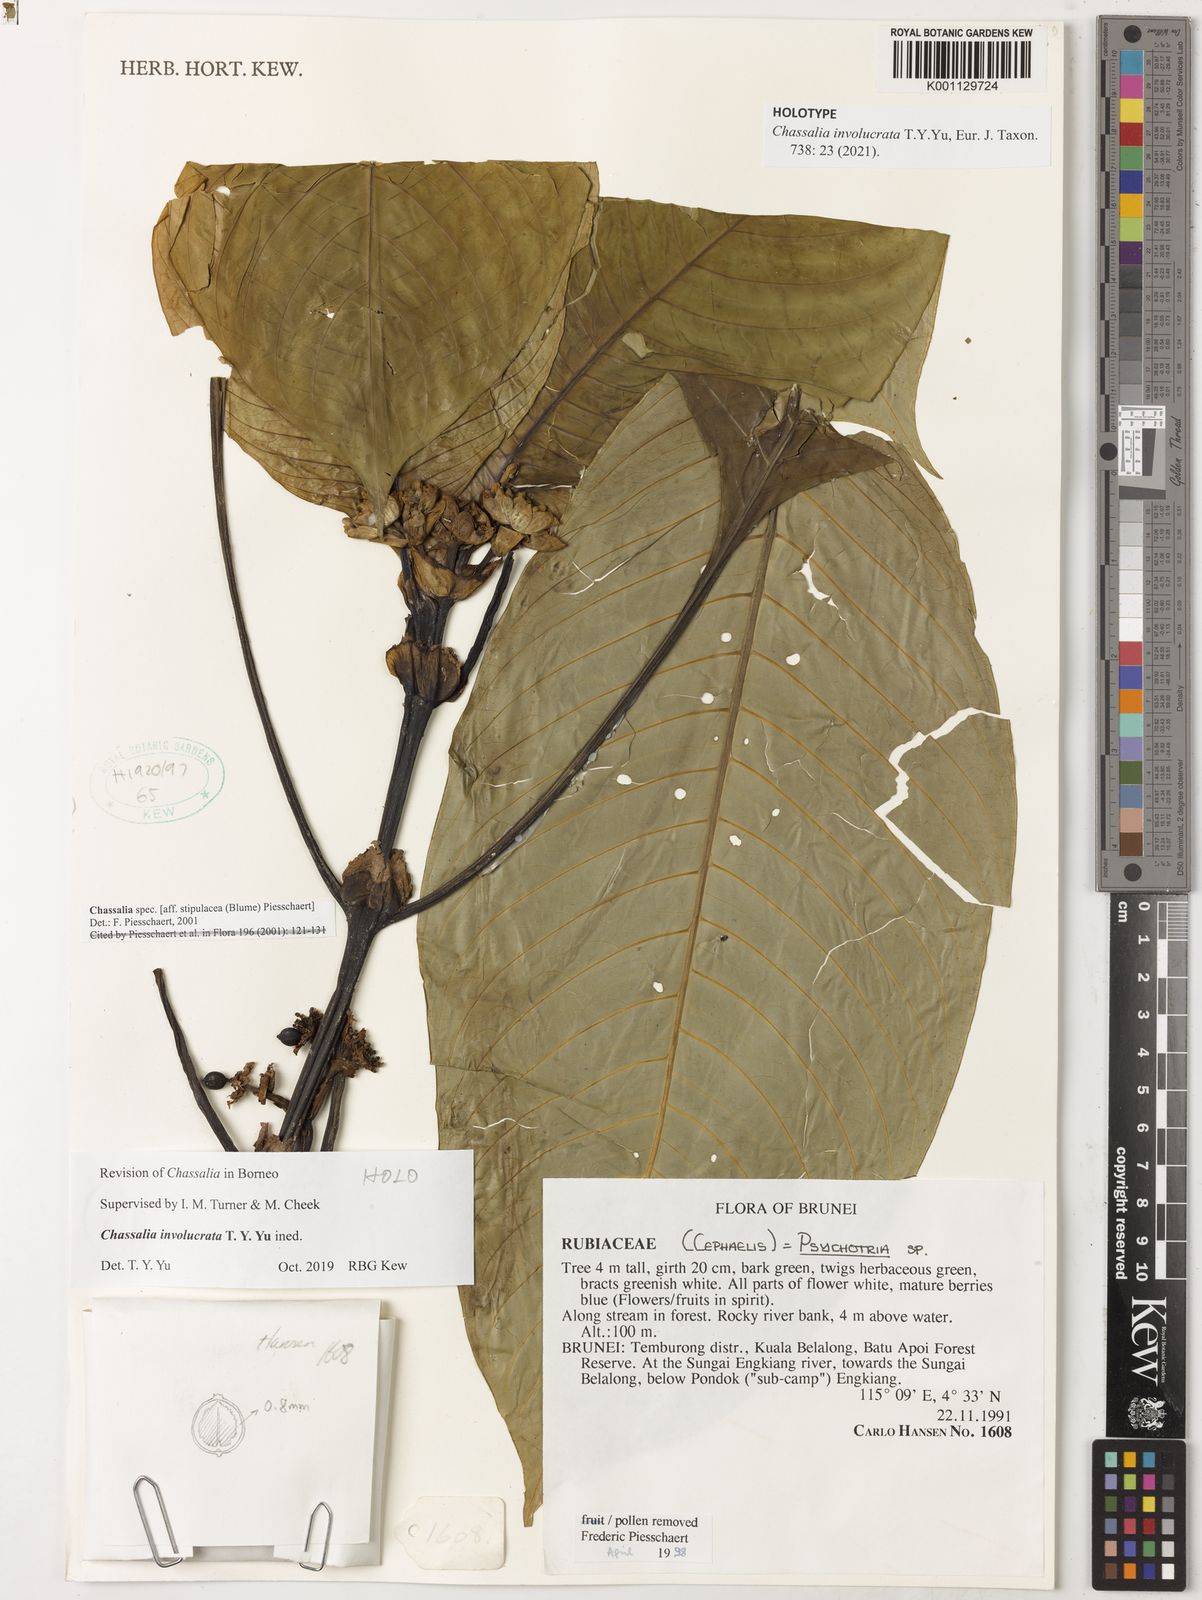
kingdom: Plantae
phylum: Tracheophyta
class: Magnoliopsida
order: Gentianales
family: Rubiaceae
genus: Chassalia
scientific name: Chassalia
